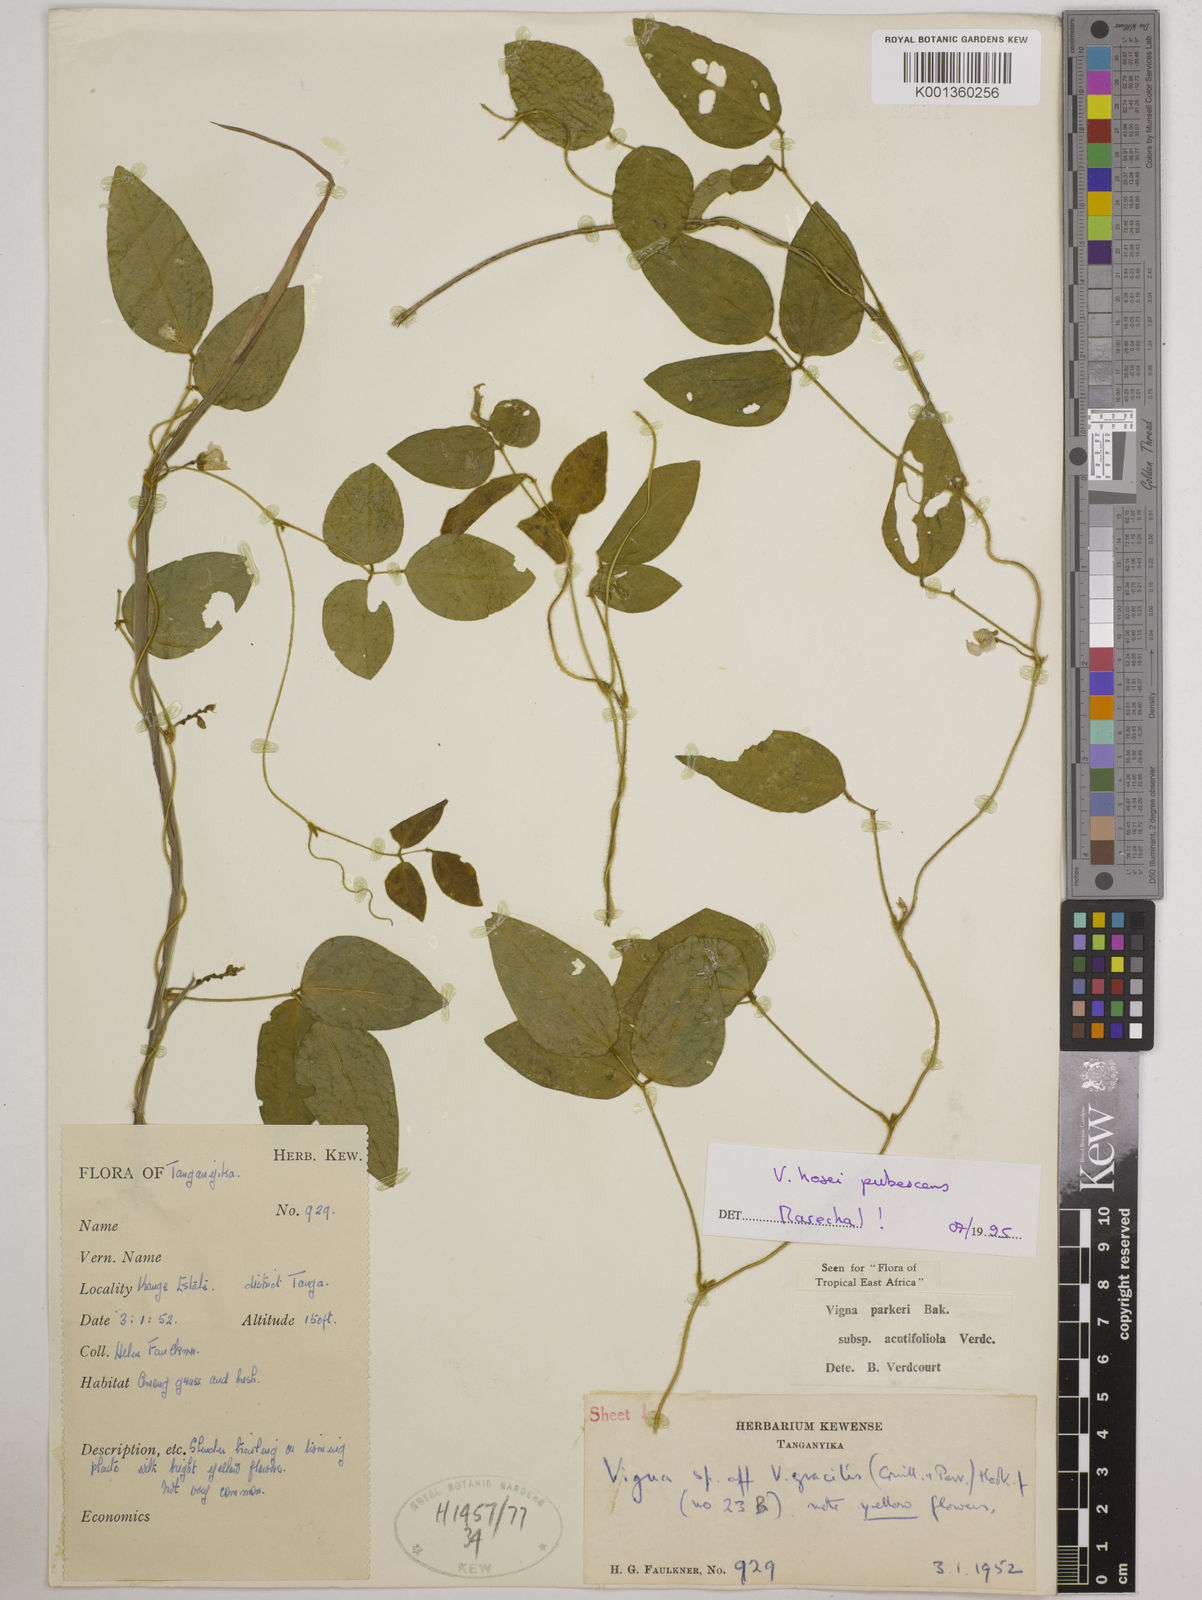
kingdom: Plantae
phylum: Tracheophyta
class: Magnoliopsida
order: Fabales
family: Fabaceae
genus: Vigna
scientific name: Vigna
